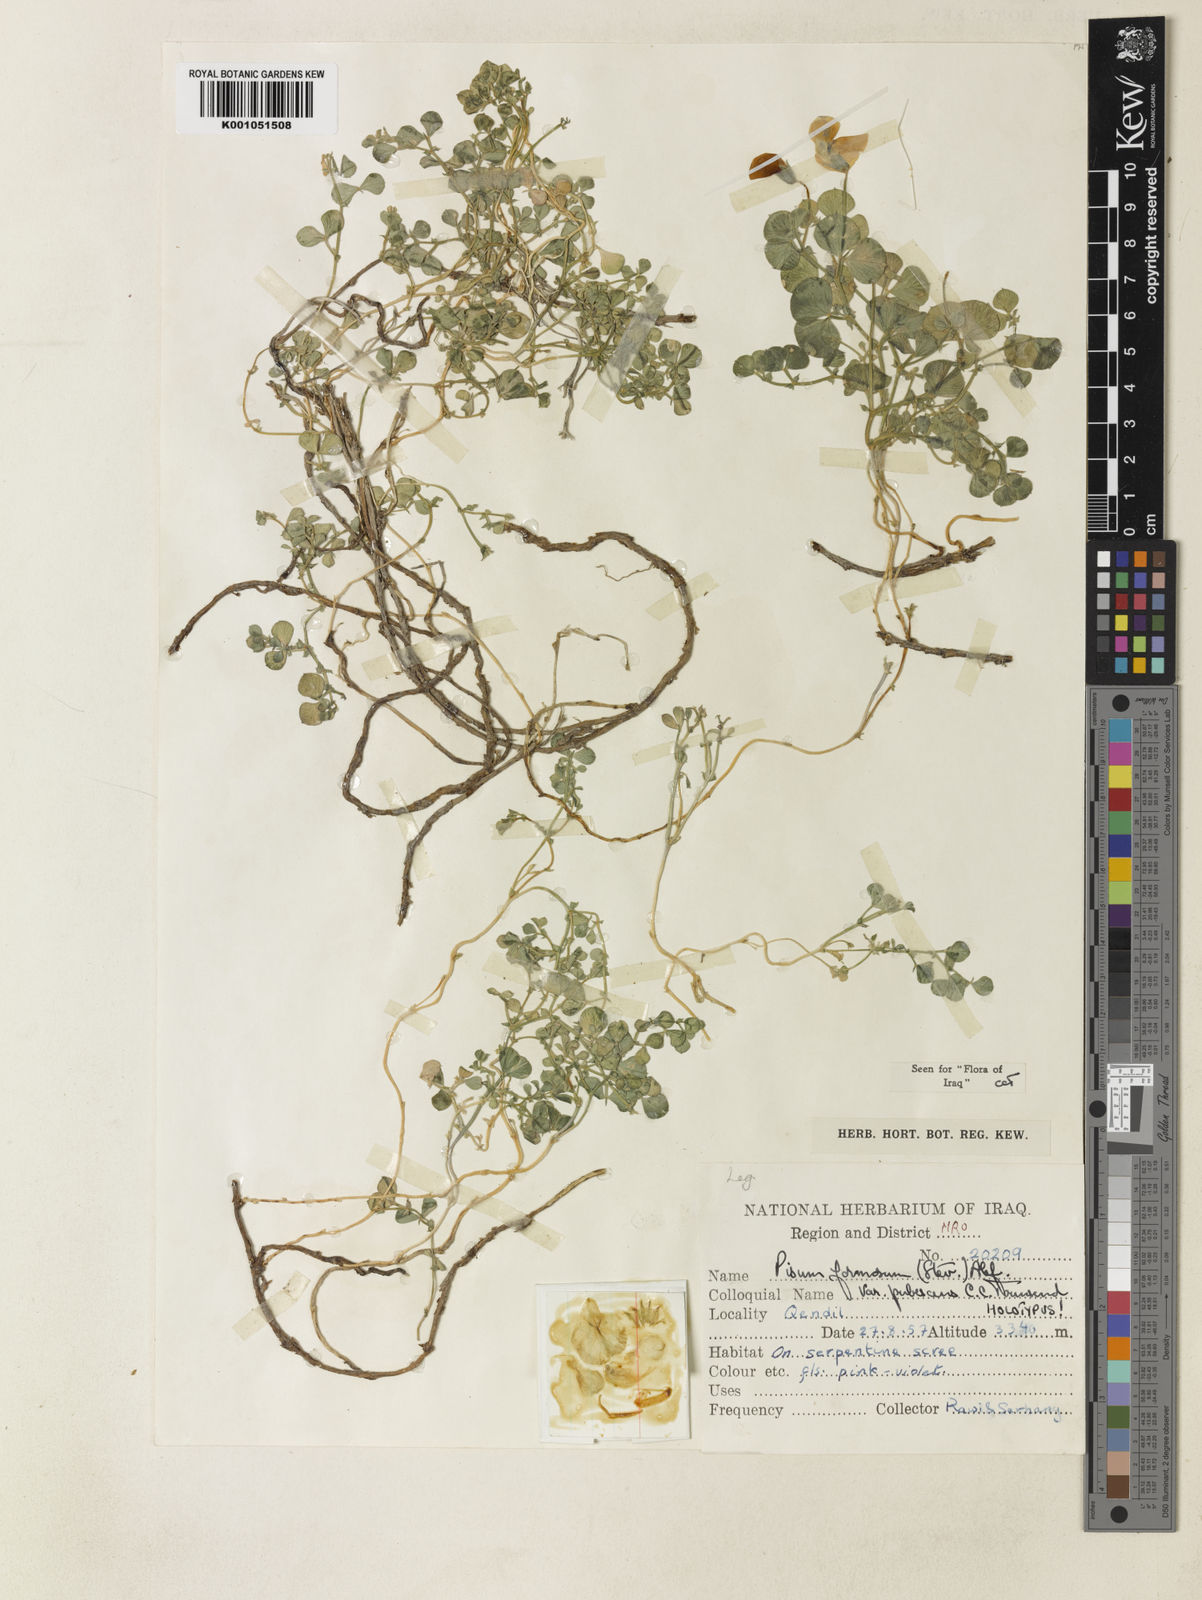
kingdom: Plantae
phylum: Tracheophyta
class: Magnoliopsida
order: Fabales
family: Fabaceae
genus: Lathyrus
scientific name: Lathyrus formosus
